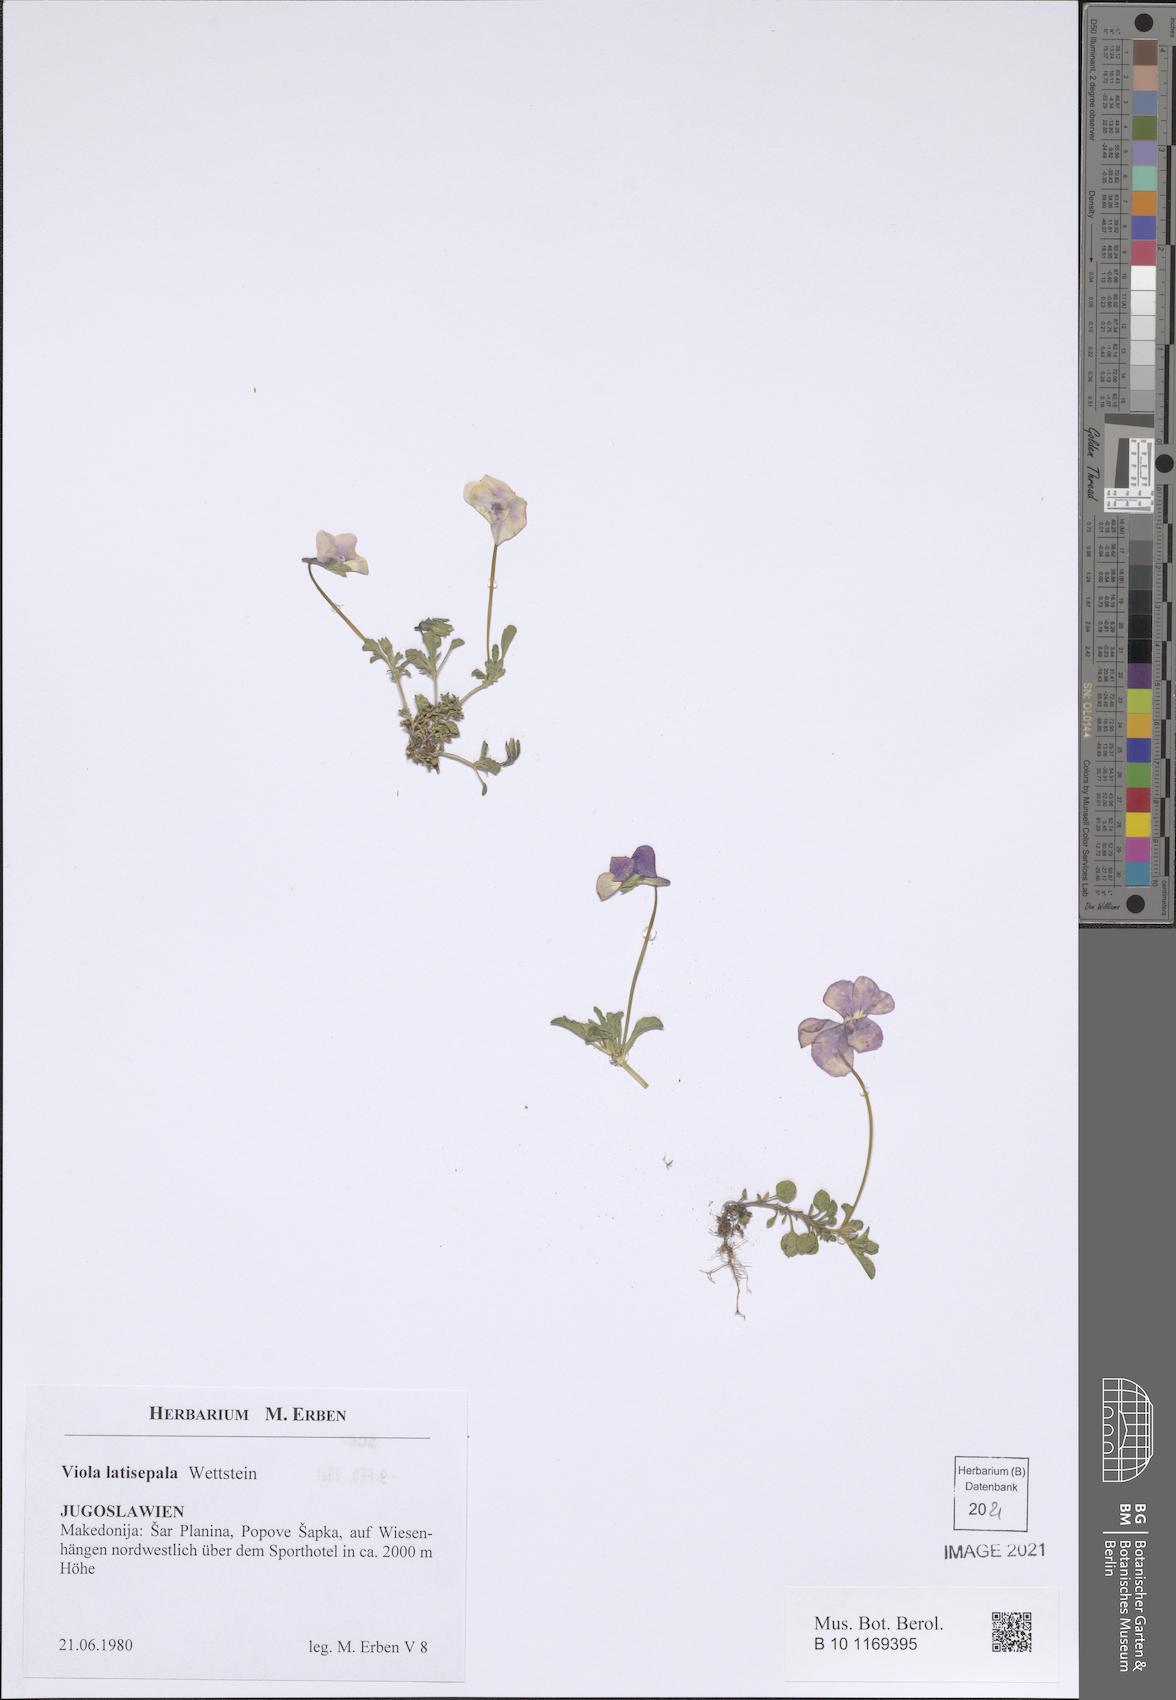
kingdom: Plantae
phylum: Tracheophyta
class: Magnoliopsida
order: Malpighiales
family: Violaceae
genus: Viola
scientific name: Viola tricolor
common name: Pansy
